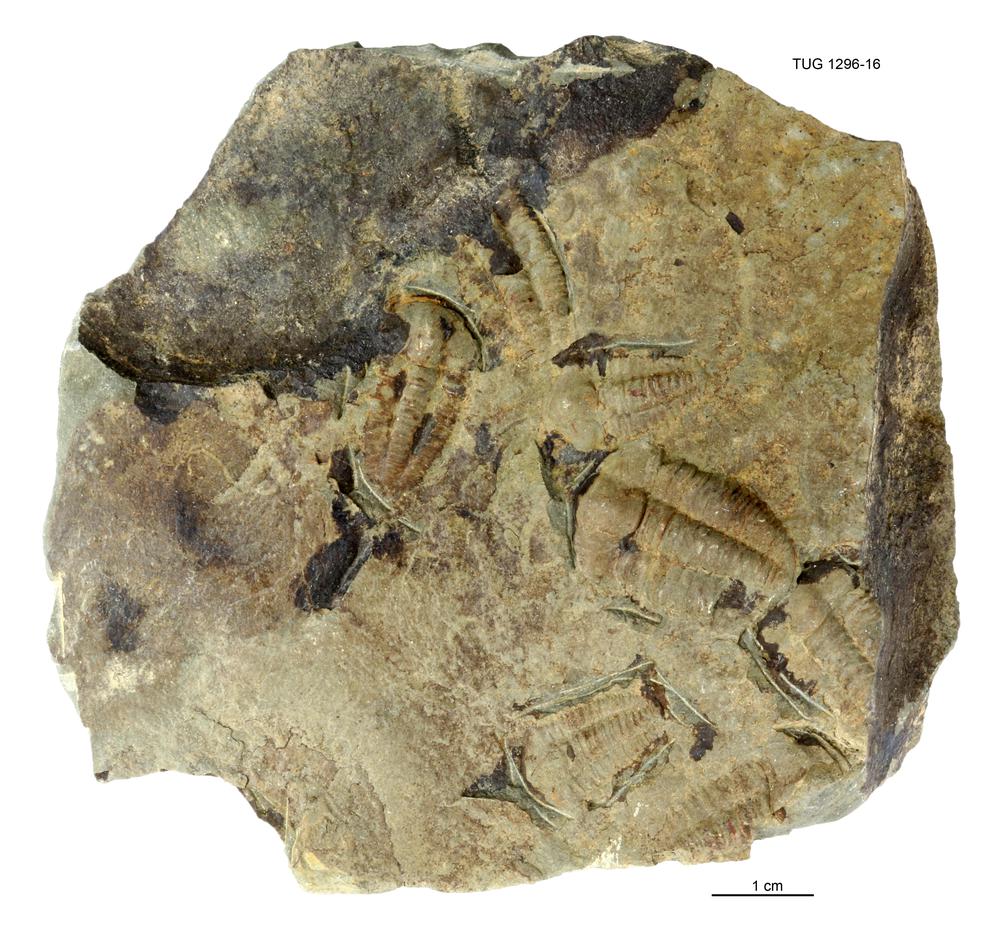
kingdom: Animalia
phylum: Arthropoda
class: Trilobita
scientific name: Trilobita
